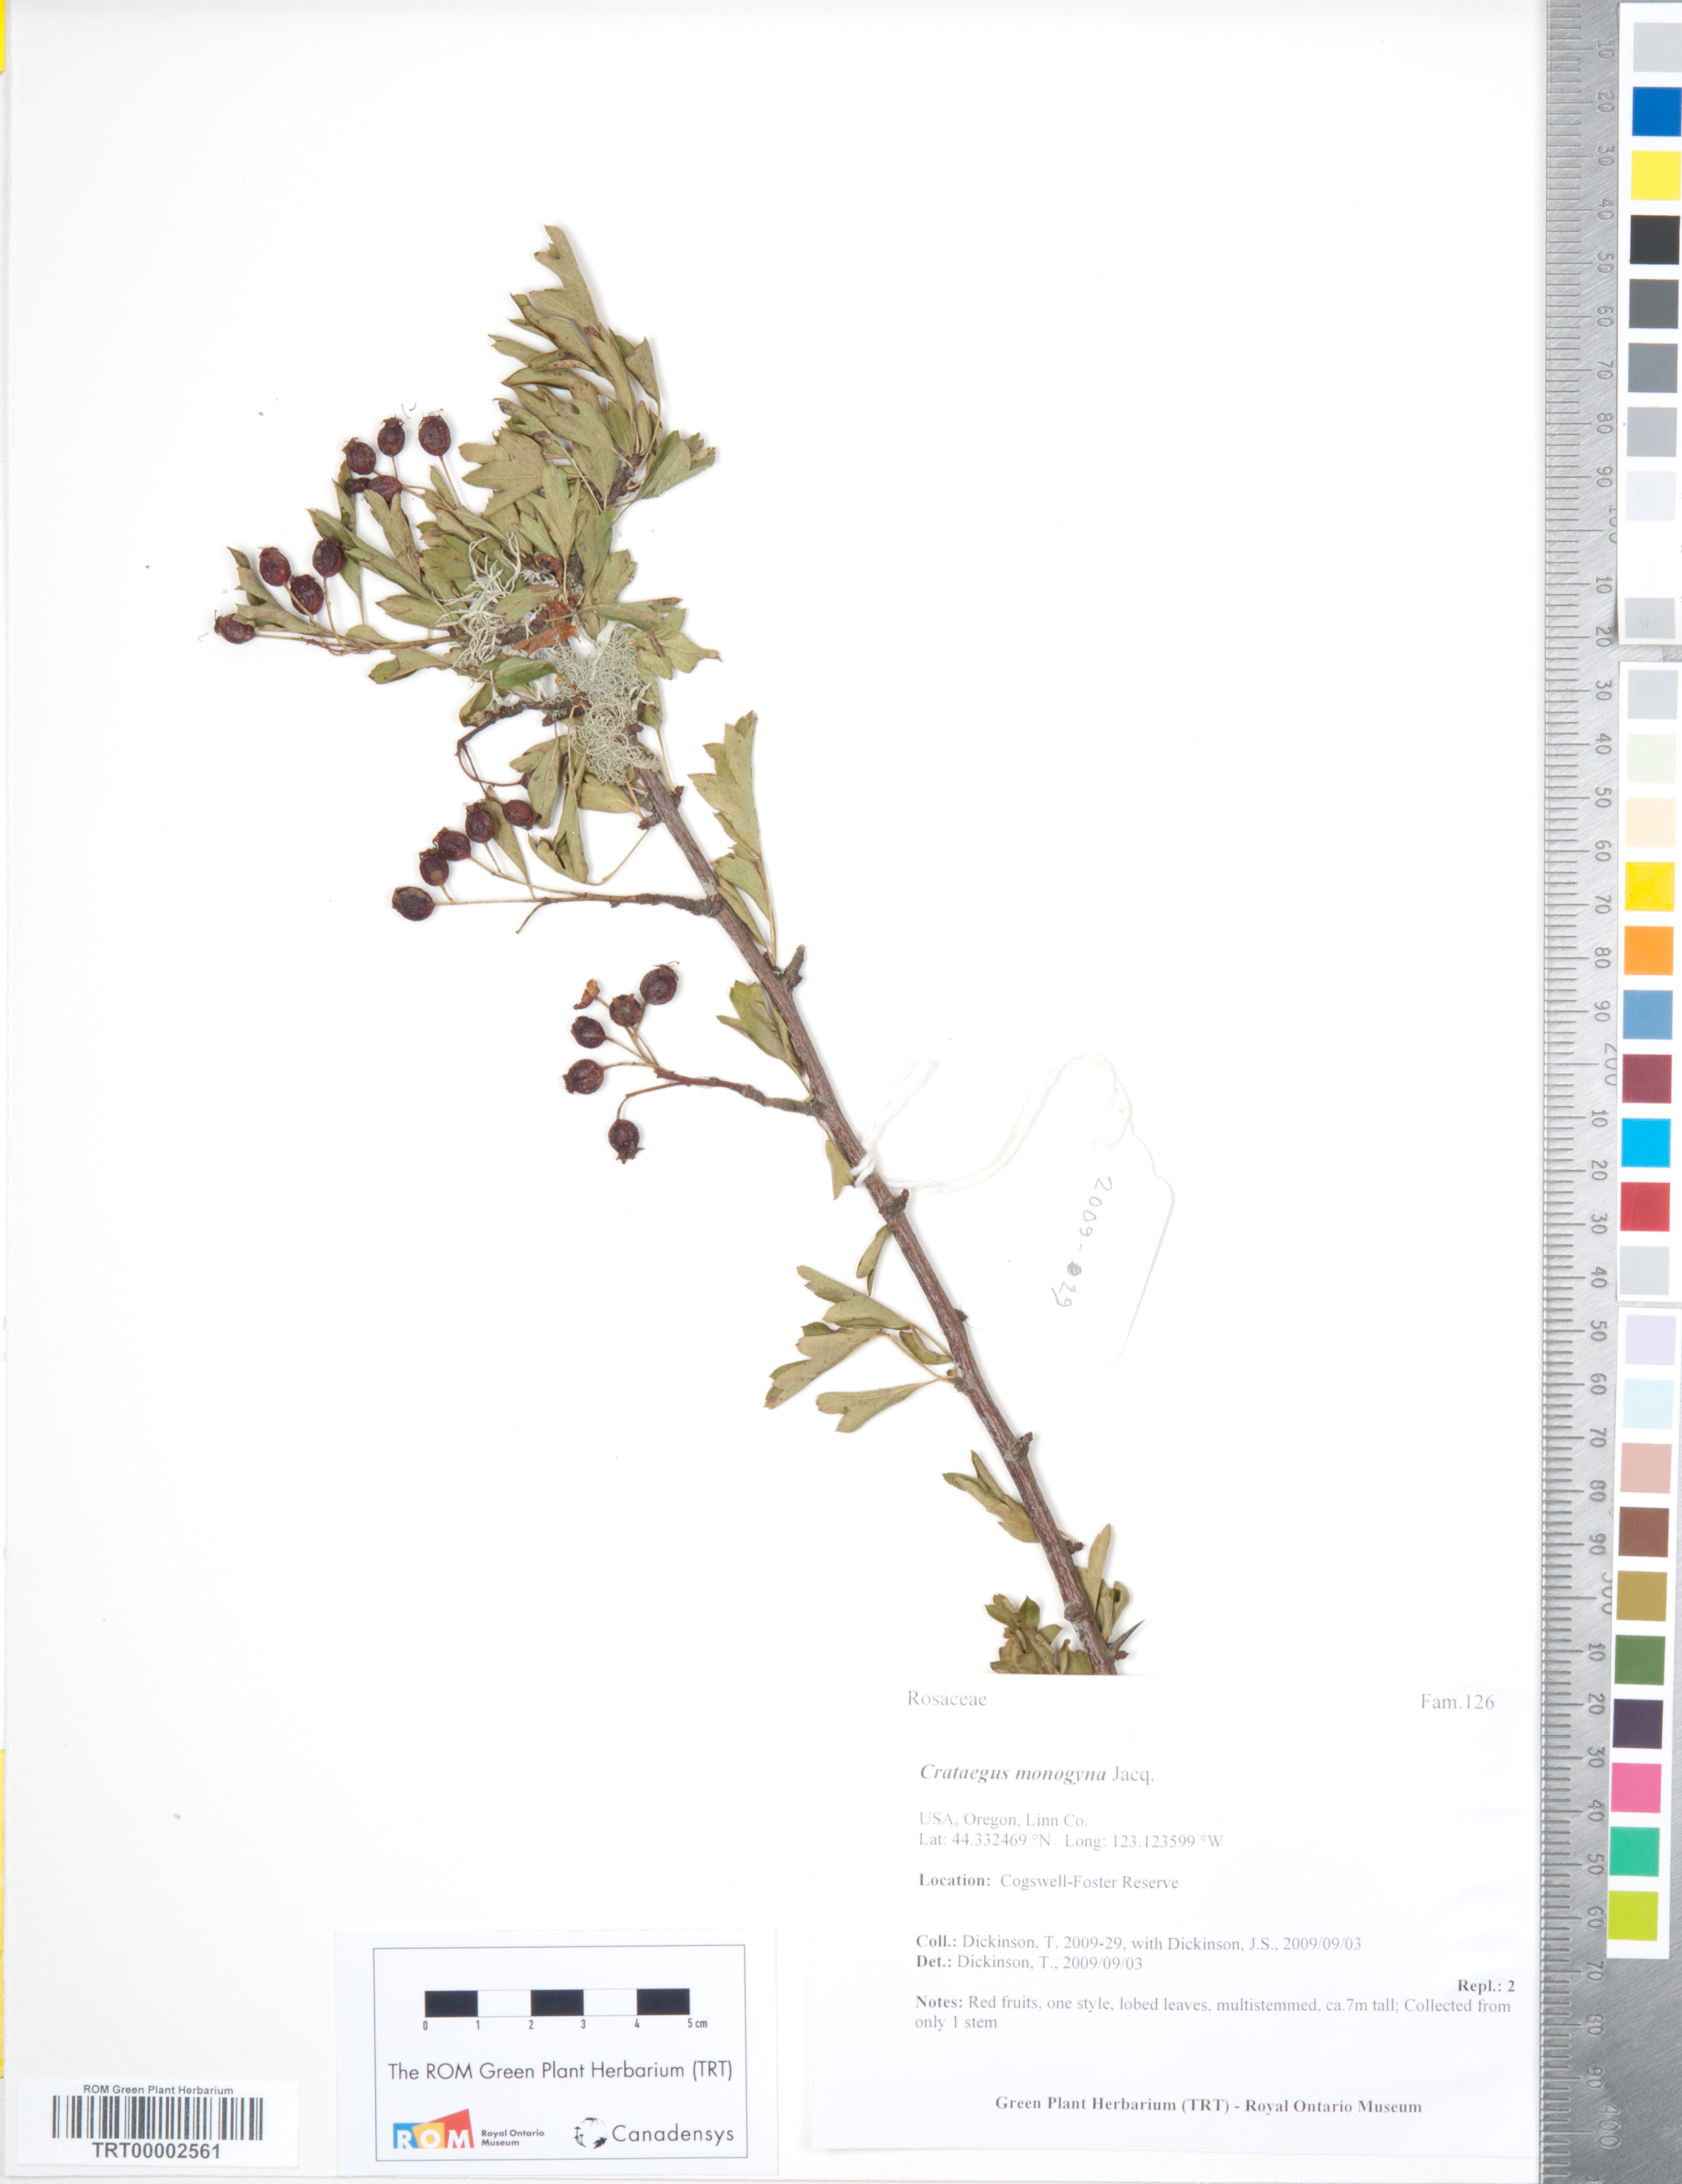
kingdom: Plantae
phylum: Tracheophyta
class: Magnoliopsida
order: Rosales
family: Rosaceae
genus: Crataegus
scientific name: Crataegus monogyna
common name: Hawthorn
